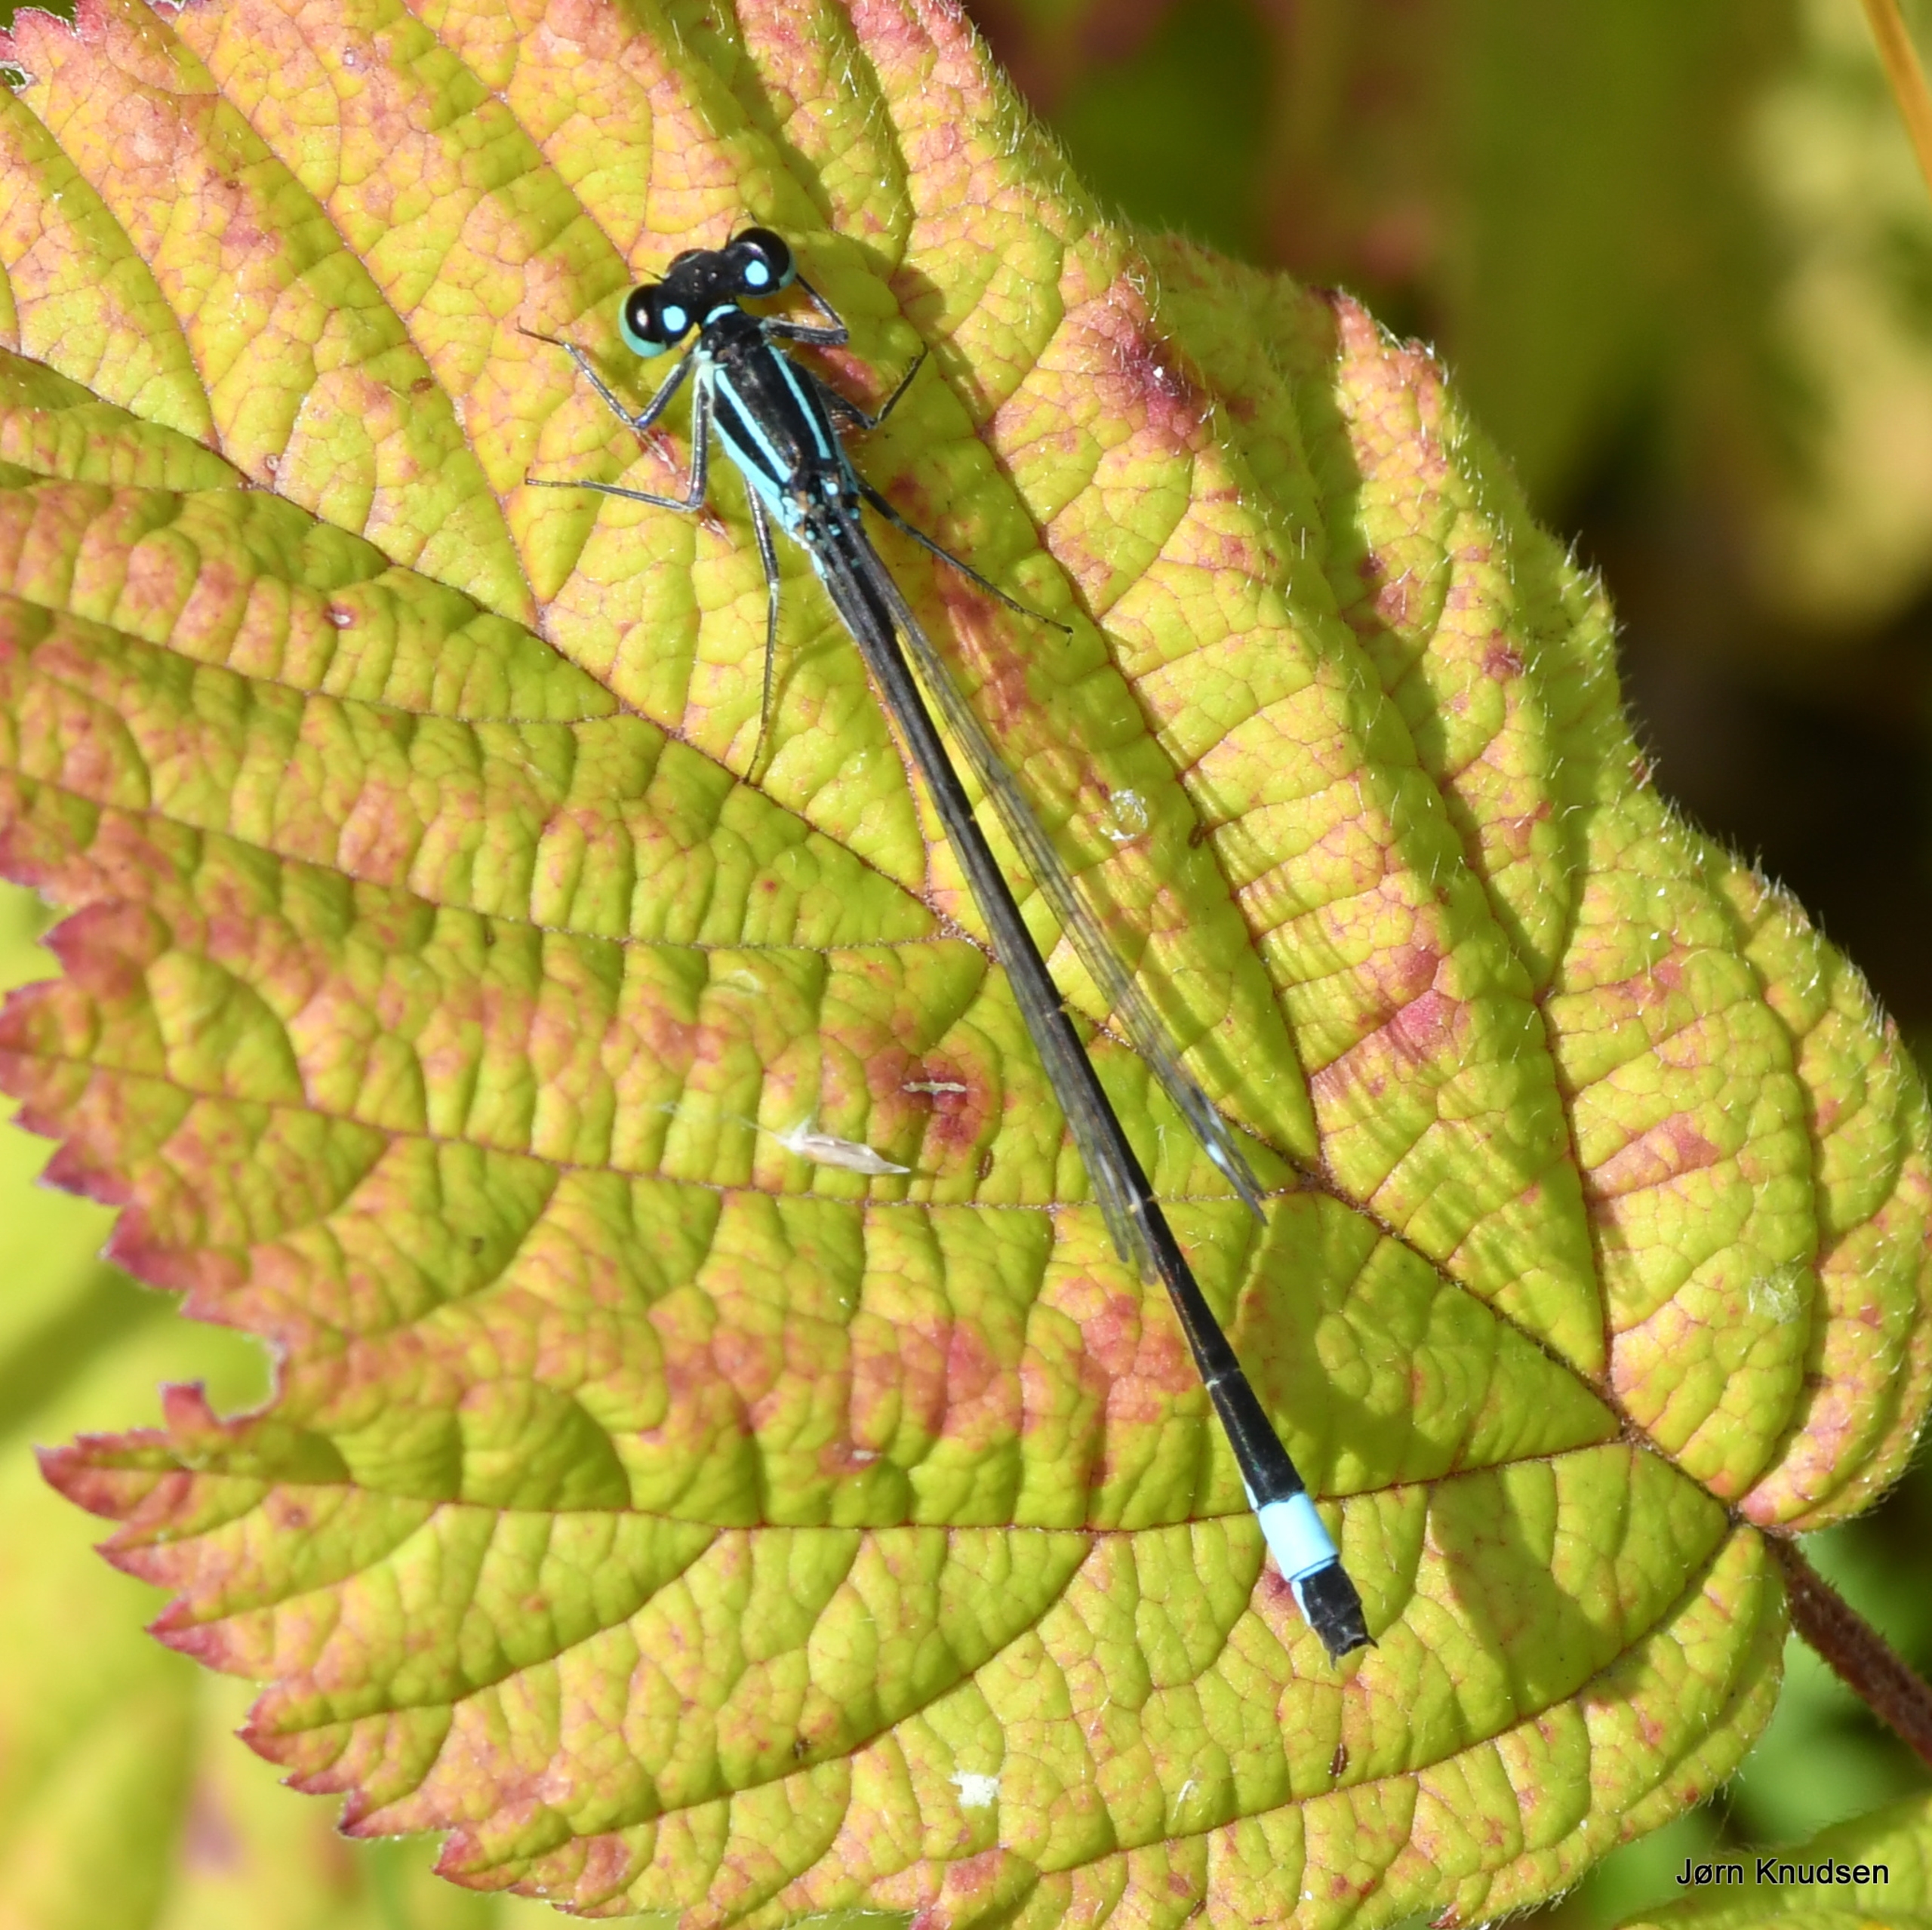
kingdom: Animalia
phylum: Arthropoda
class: Insecta
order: Odonata
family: Coenagrionidae
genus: Ischnura
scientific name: Ischnura elegans
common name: Stor farvevandnymfe
